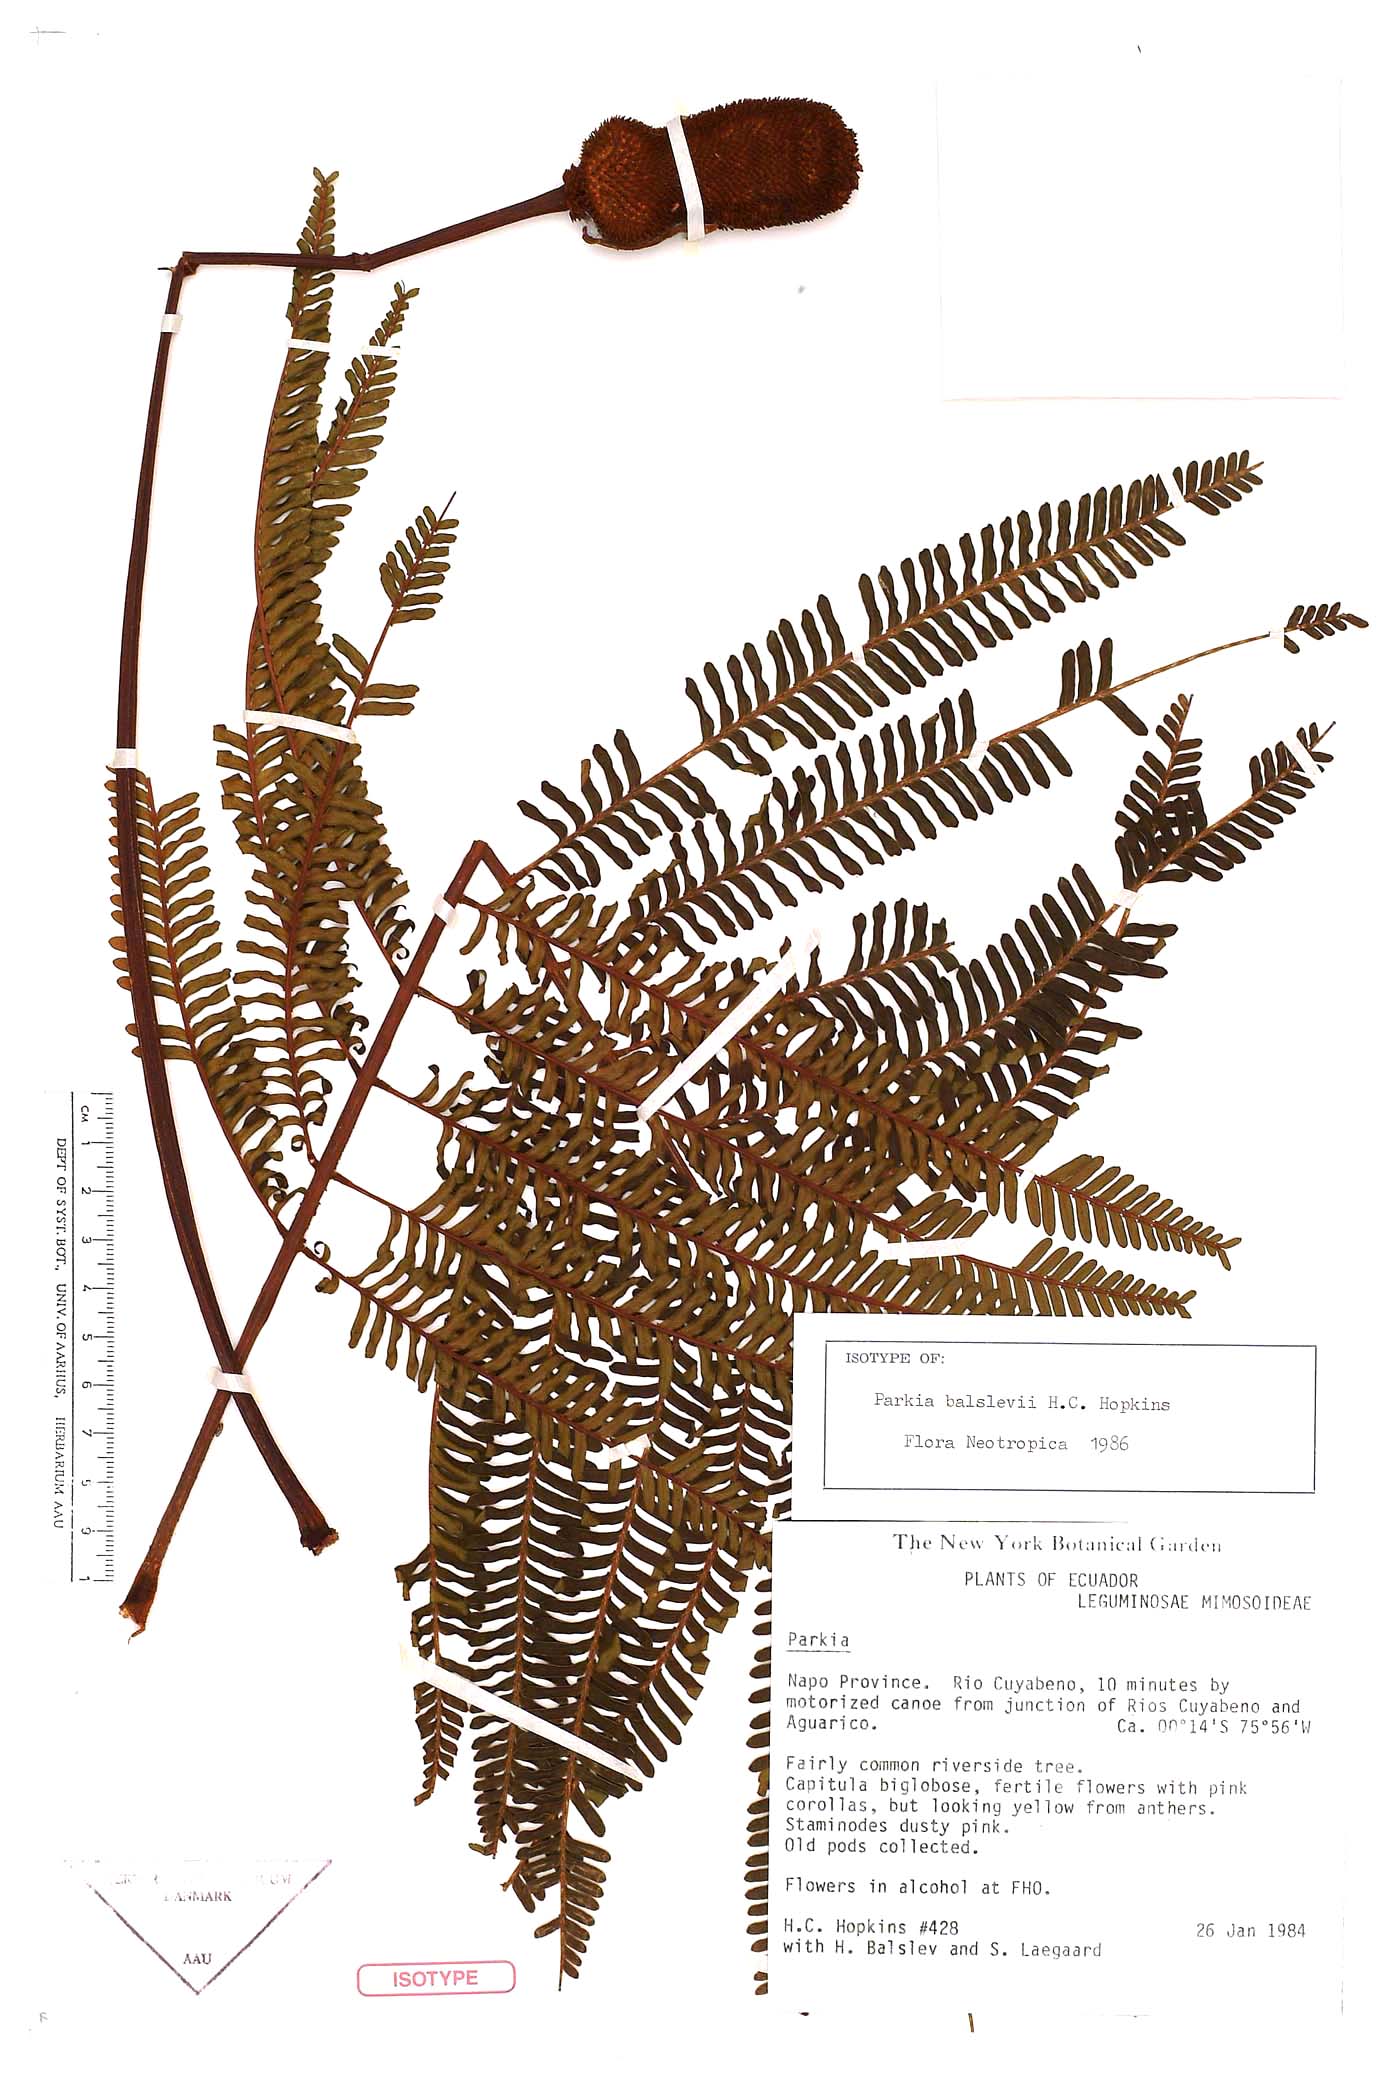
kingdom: Plantae
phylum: Tracheophyta
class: Magnoliopsida
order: Fabales
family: Fabaceae
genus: Parkia
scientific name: Parkia balslevii
